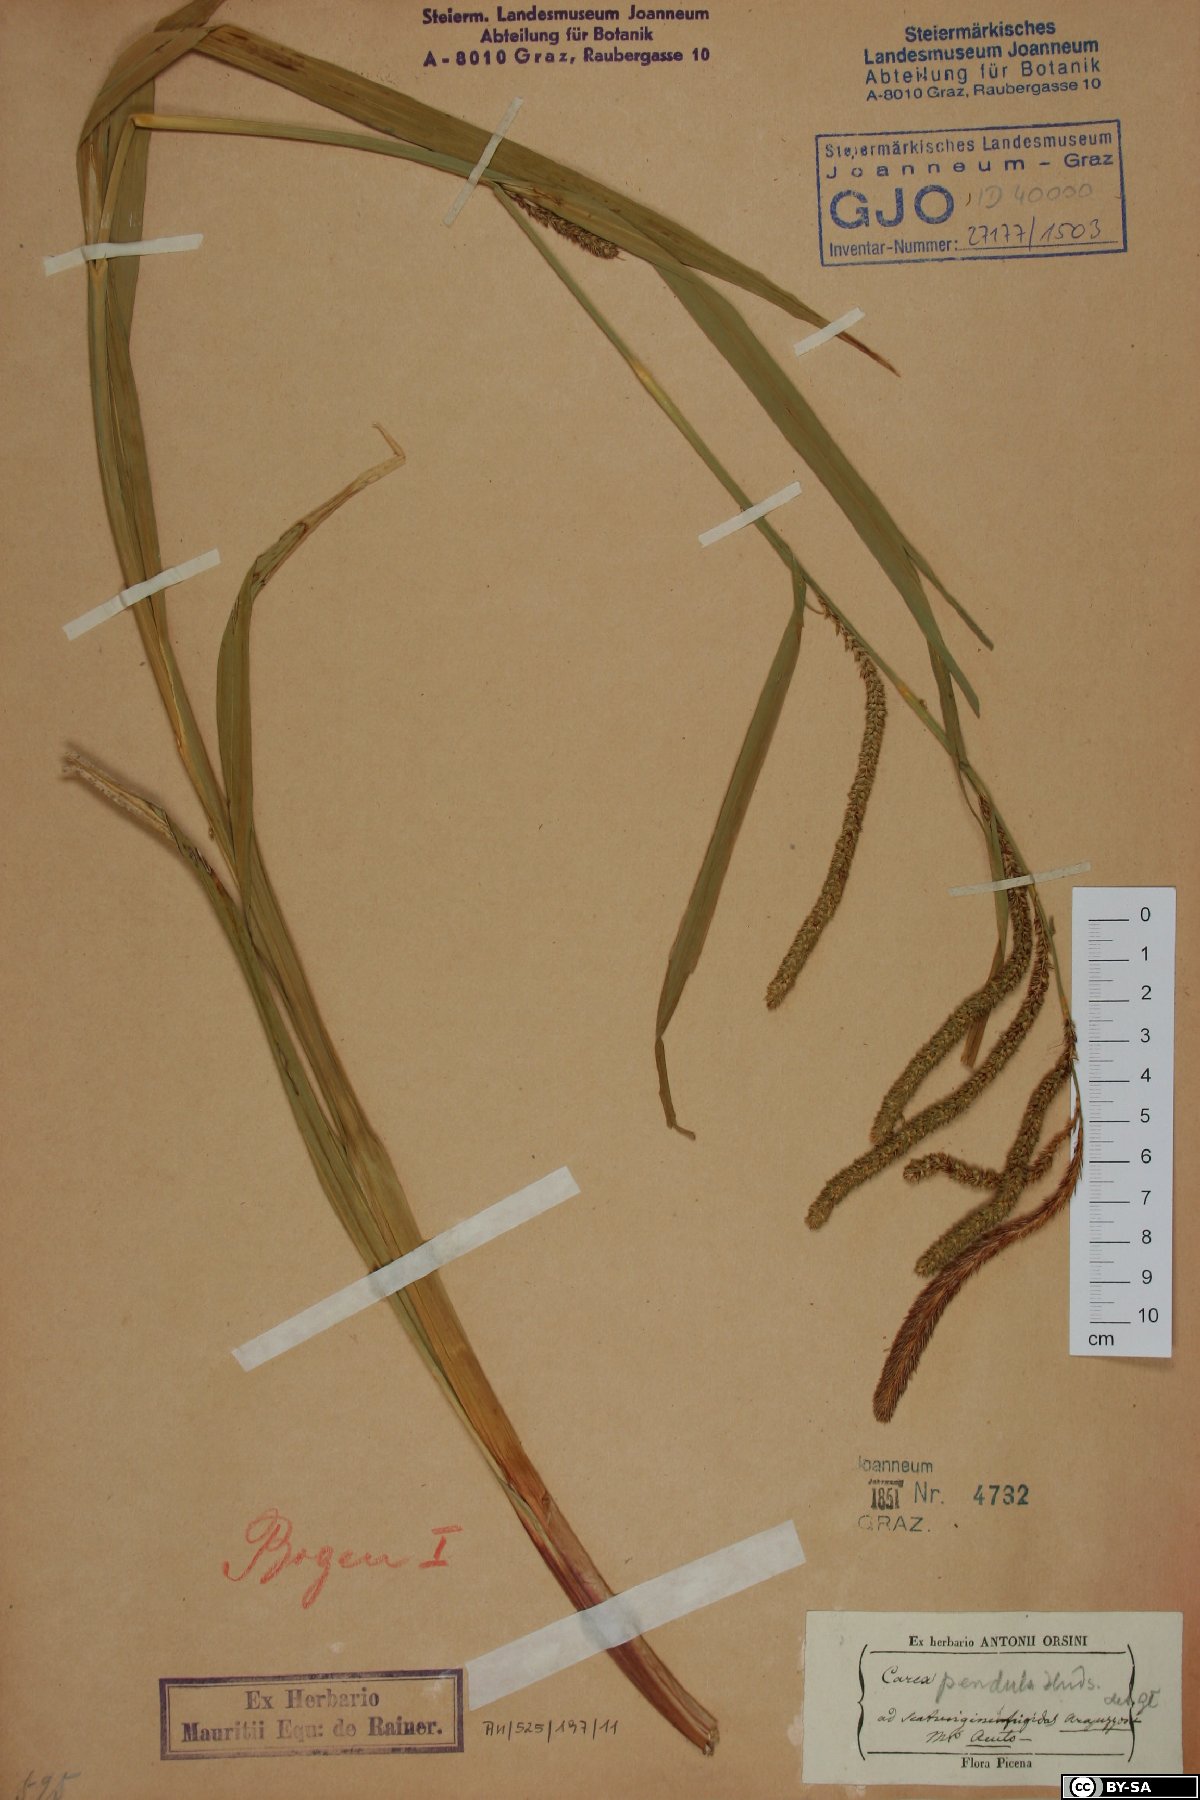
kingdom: Plantae
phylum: Tracheophyta
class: Liliopsida
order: Poales
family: Cyperaceae
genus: Carex
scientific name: Carex pendula
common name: Pendulous sedge
